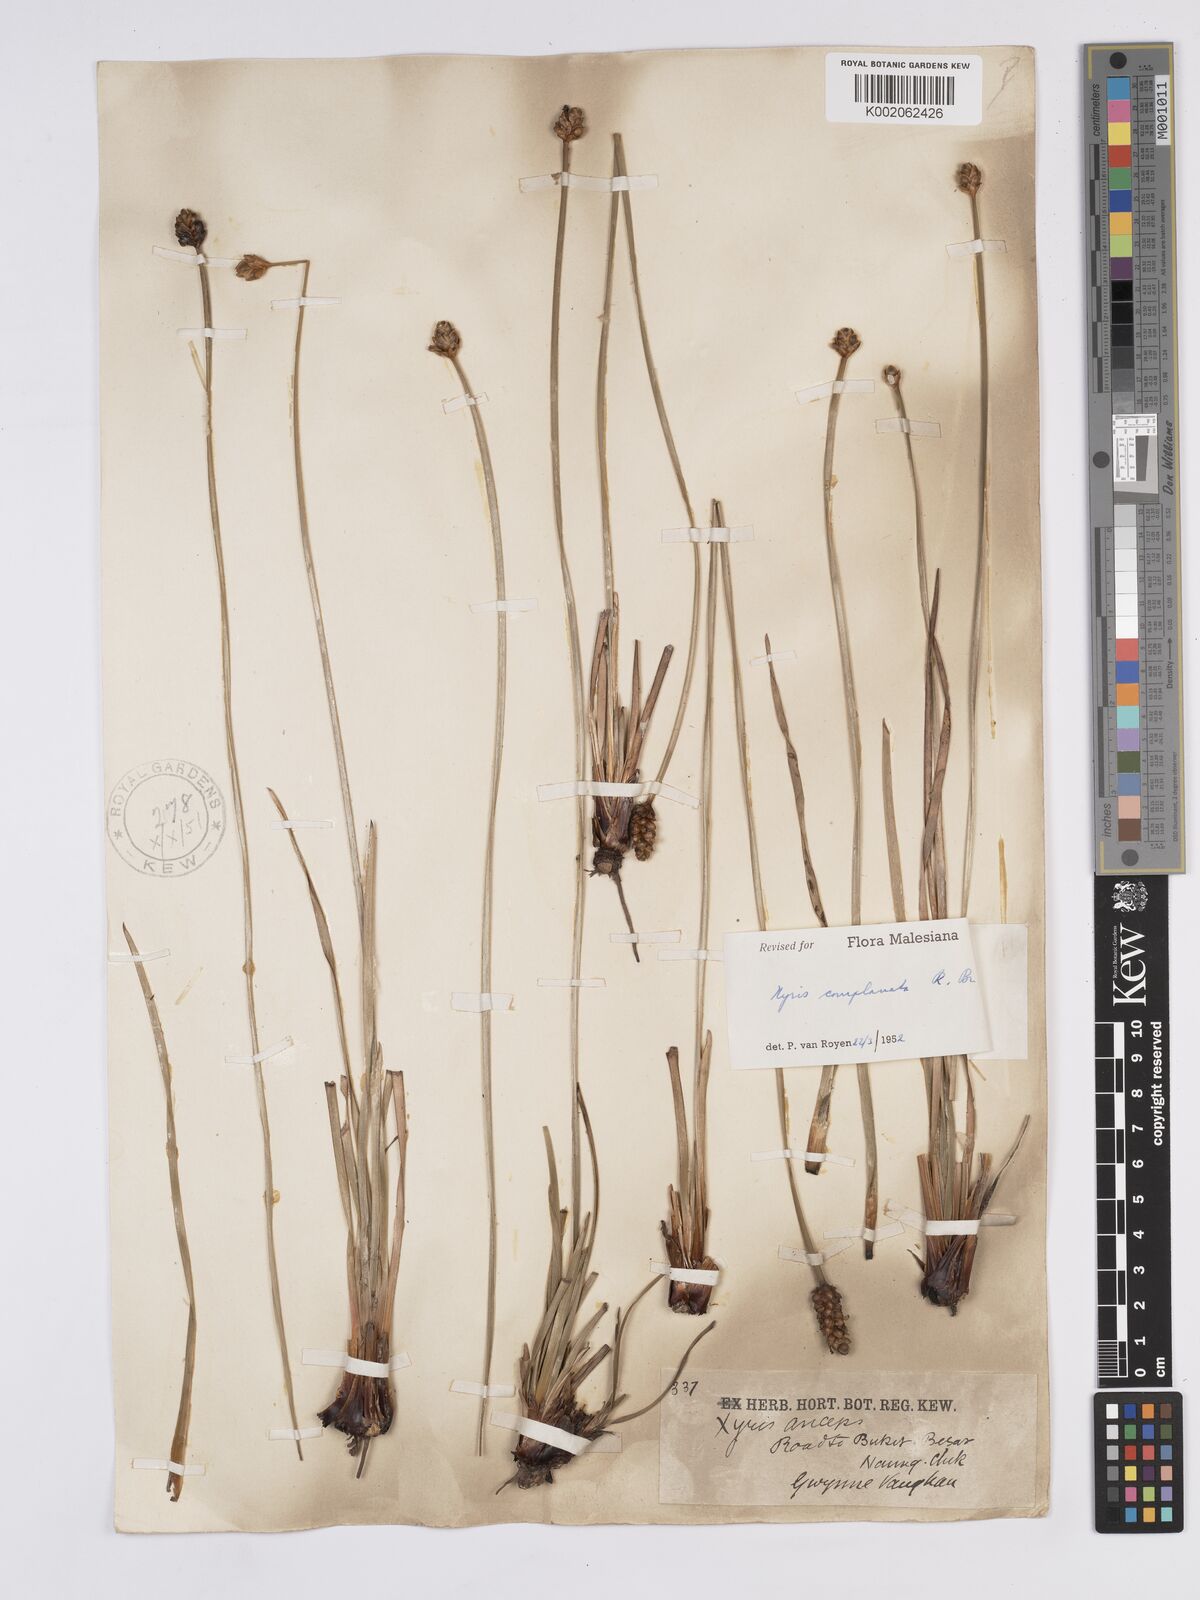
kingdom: Plantae
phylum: Tracheophyta
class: Liliopsida
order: Poales
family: Xyridaceae
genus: Xyris
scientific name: Xyris complanata
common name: Hawai'i yelloweyed grass
